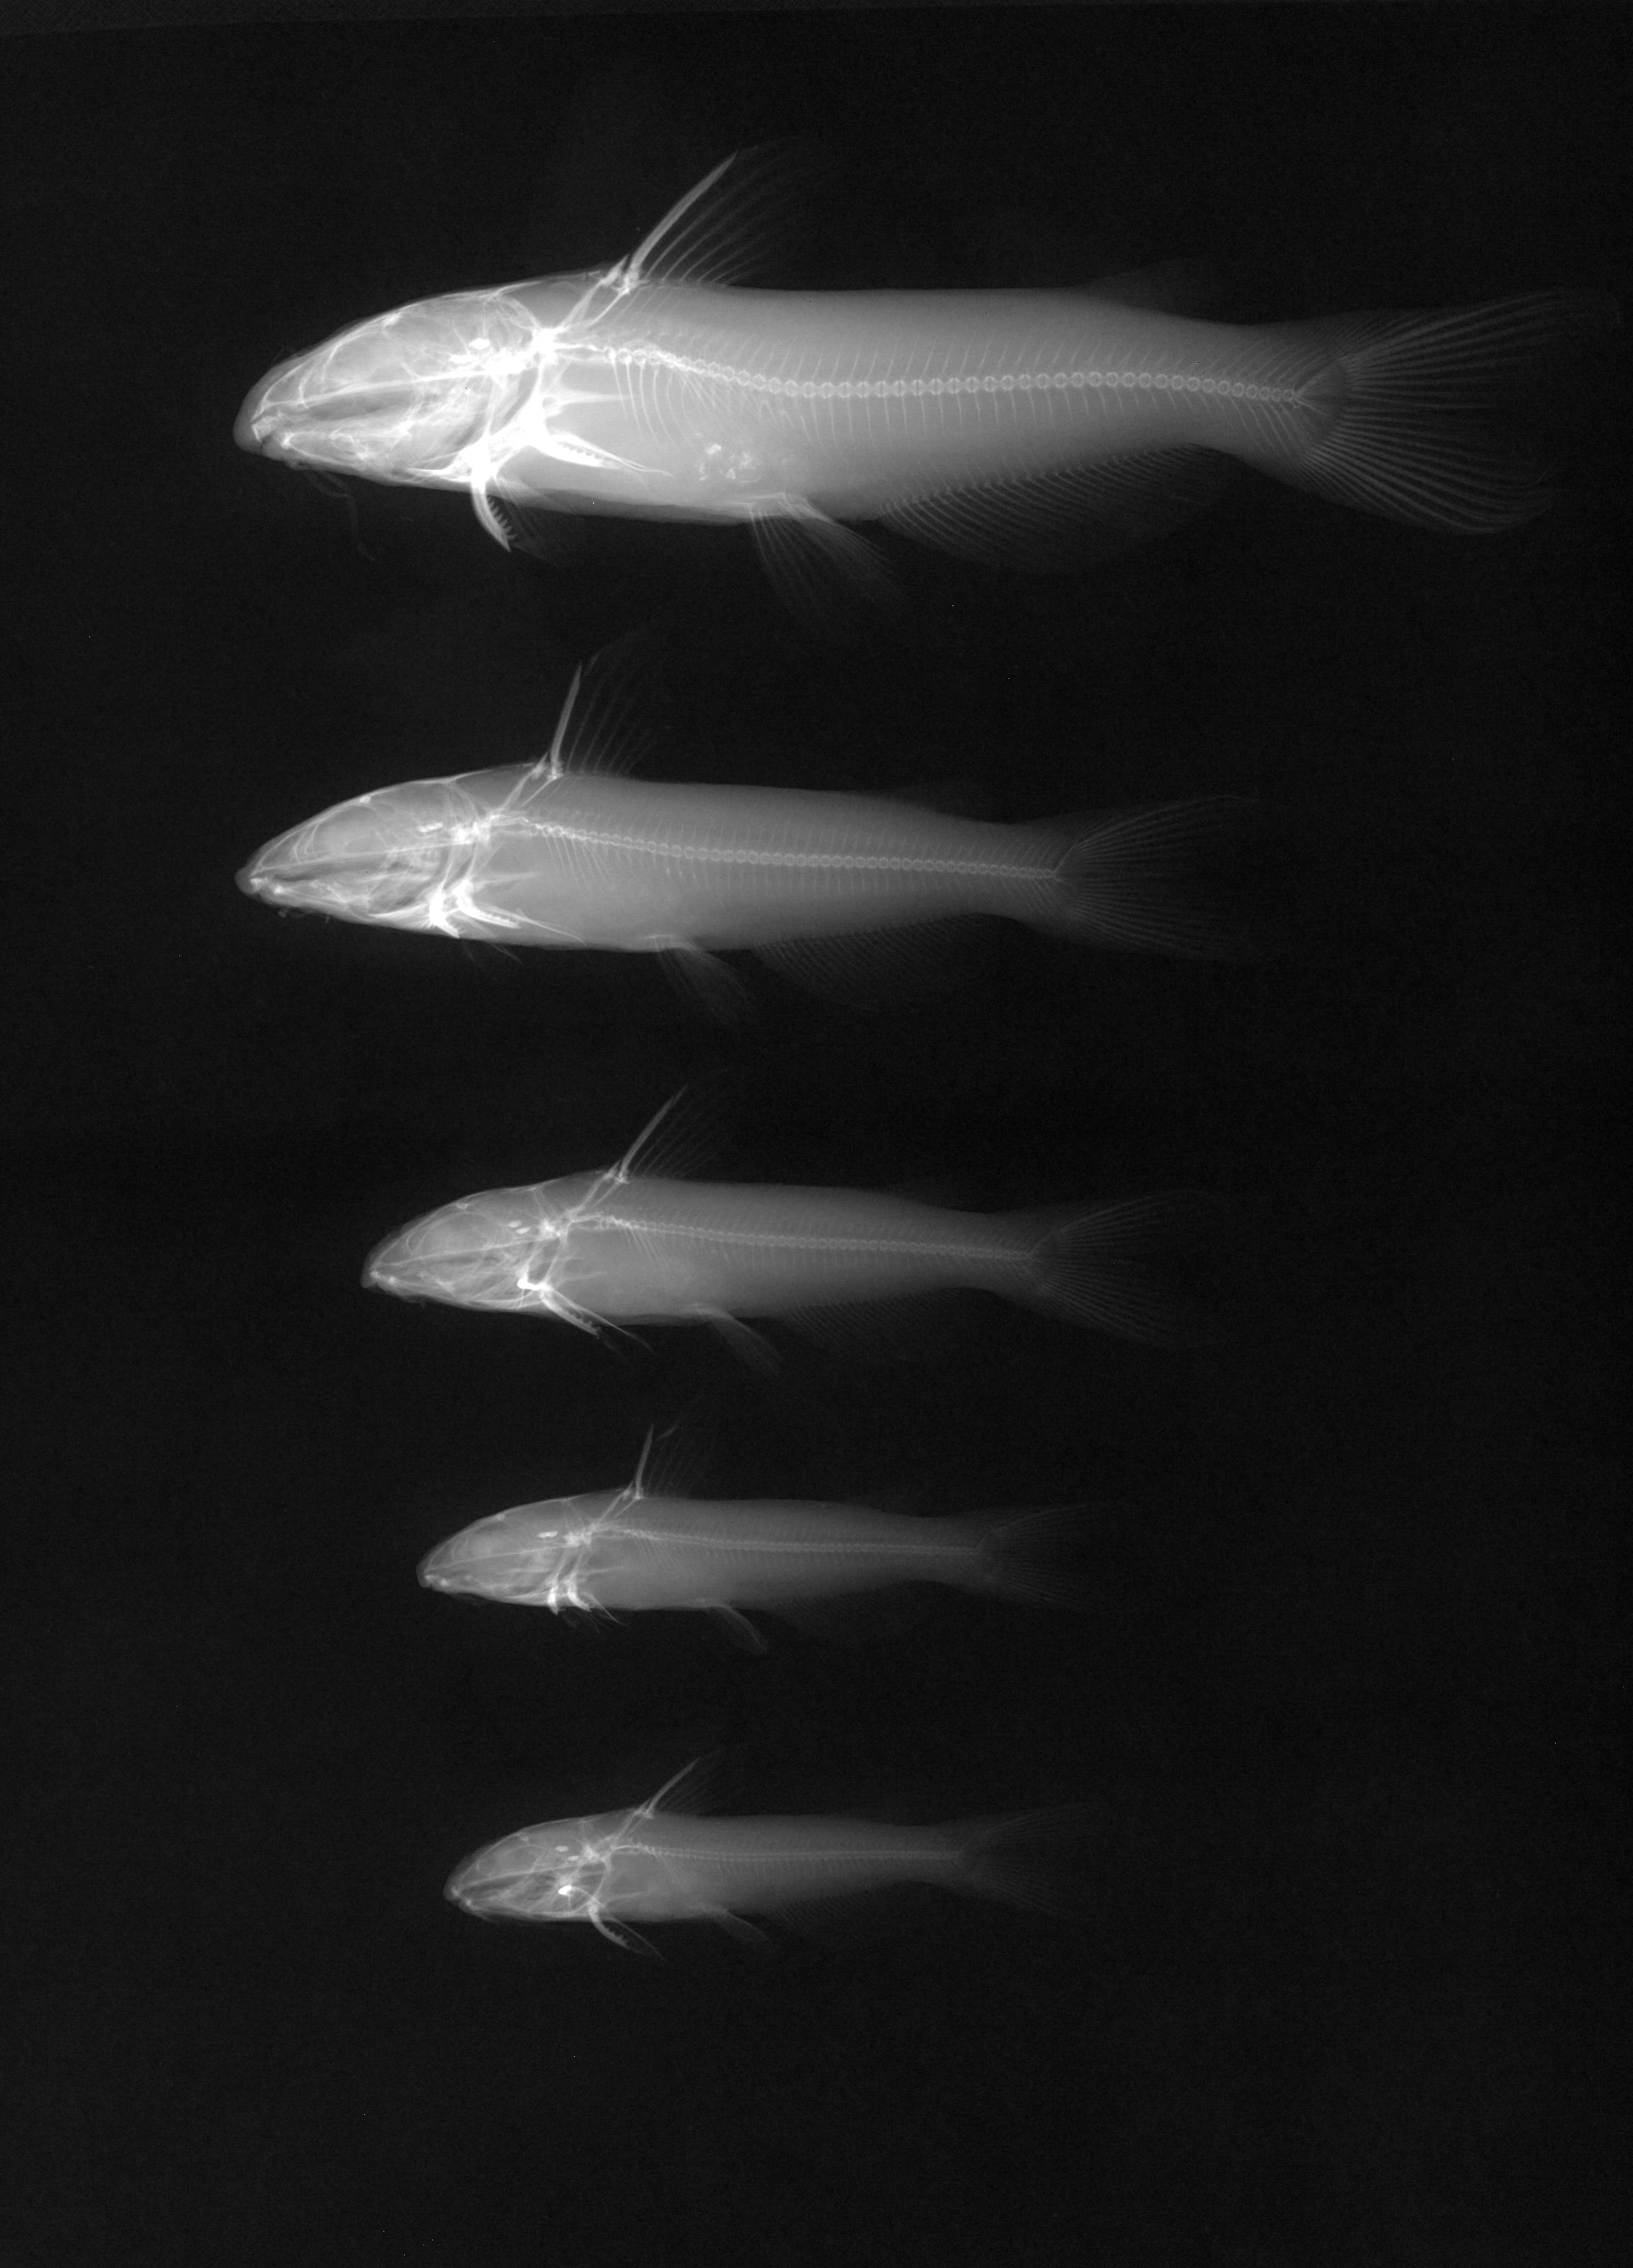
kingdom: Animalia
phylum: Chordata
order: Siluriformes
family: Ictaluridae
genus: Ictalurus
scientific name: Ictalurus punctatus
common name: Channel catfish
